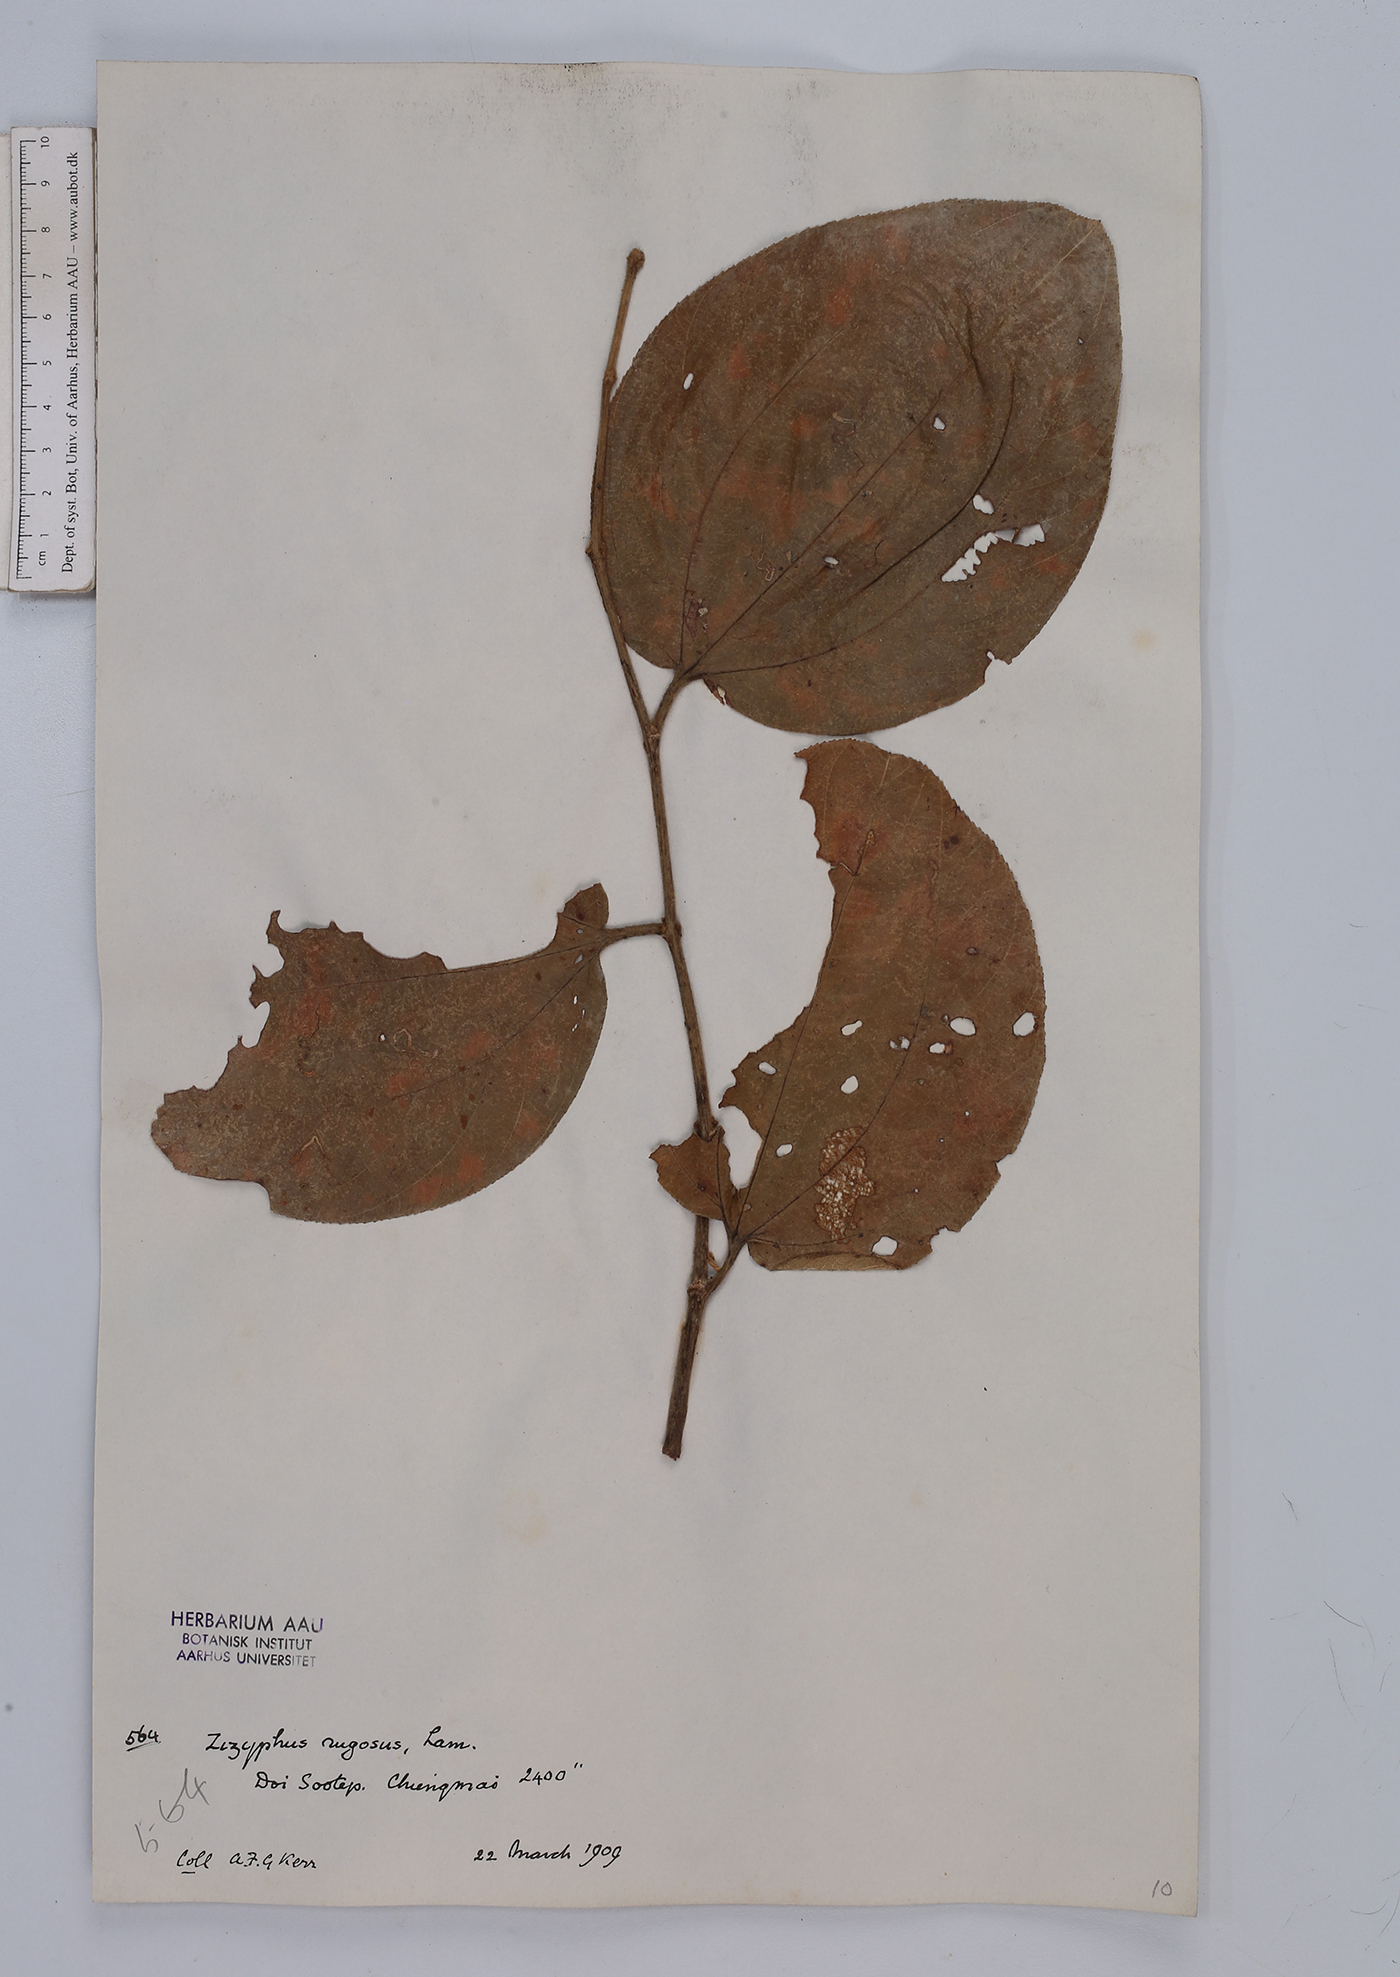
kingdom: Plantae
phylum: Tracheophyta
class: Magnoliopsida
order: Rosales
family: Rhamnaceae
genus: Ziziphus
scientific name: Ziziphus rugosa
